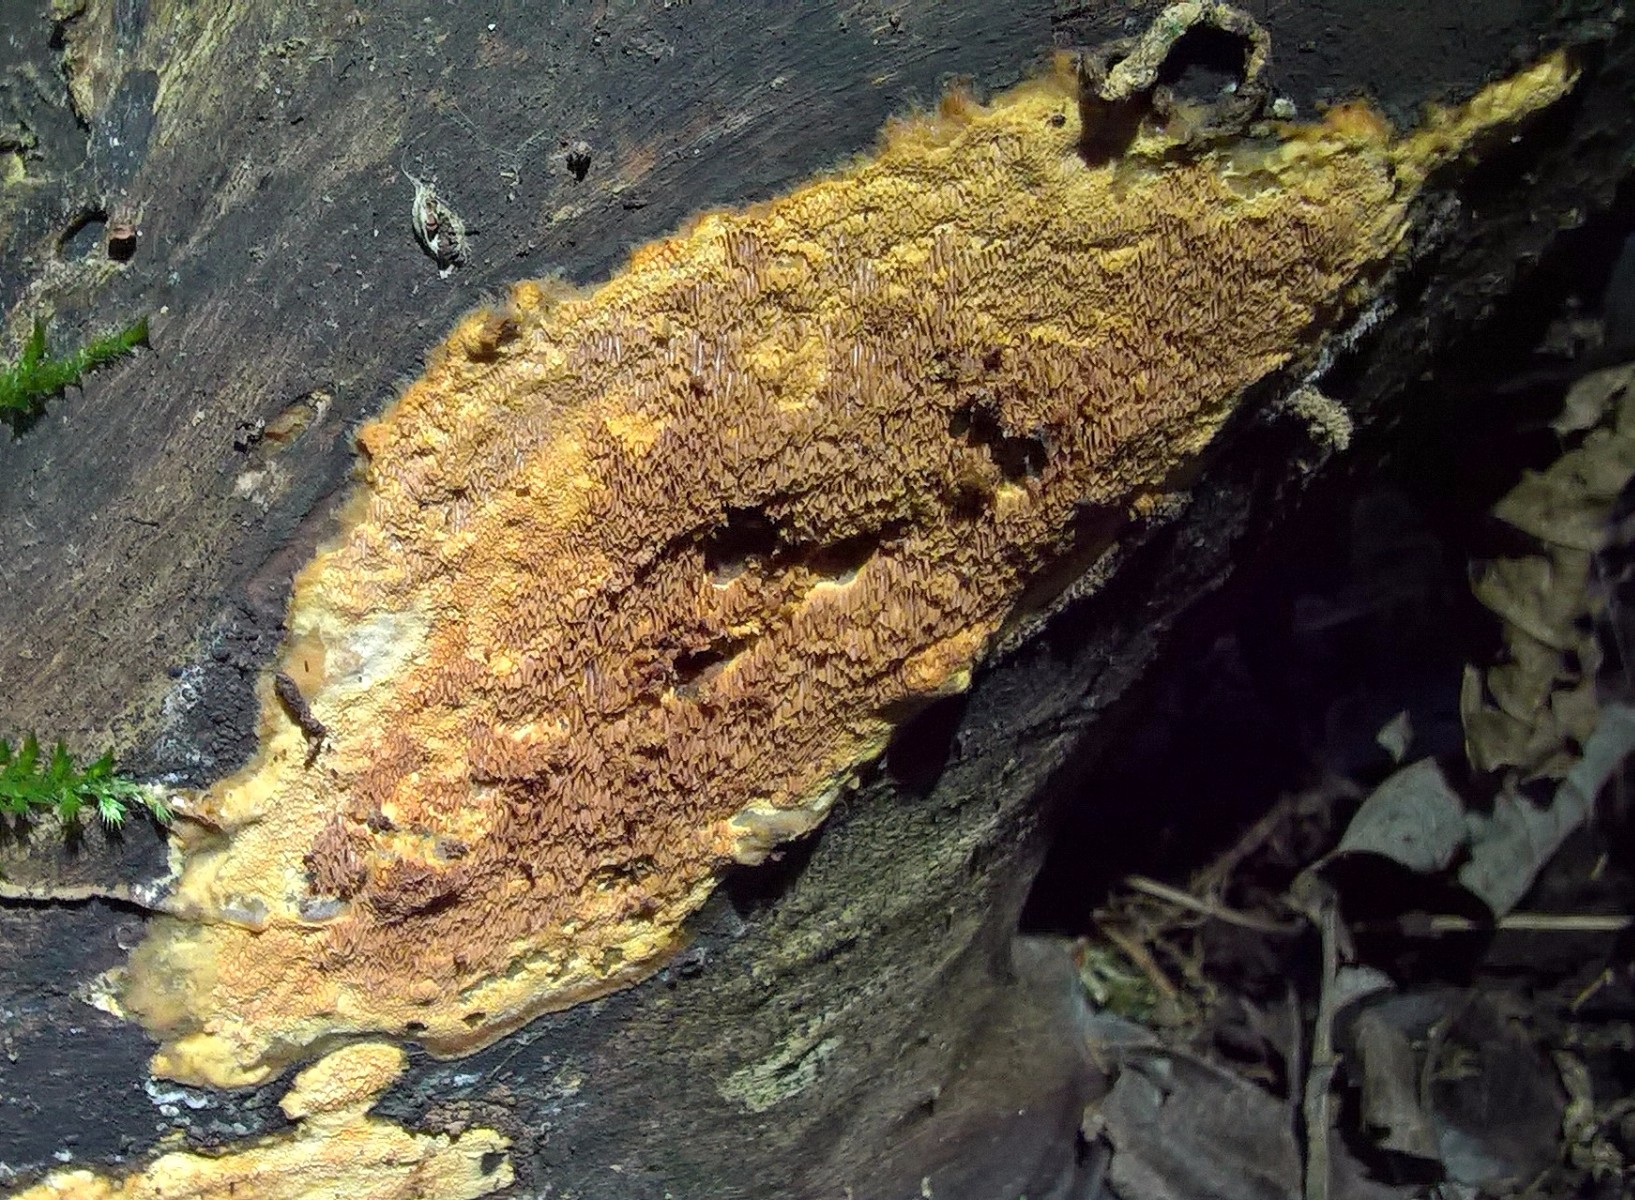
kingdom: Fungi
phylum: Basidiomycota
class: Agaricomycetes
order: Polyporales
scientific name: Polyporales
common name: poresvampordenen
